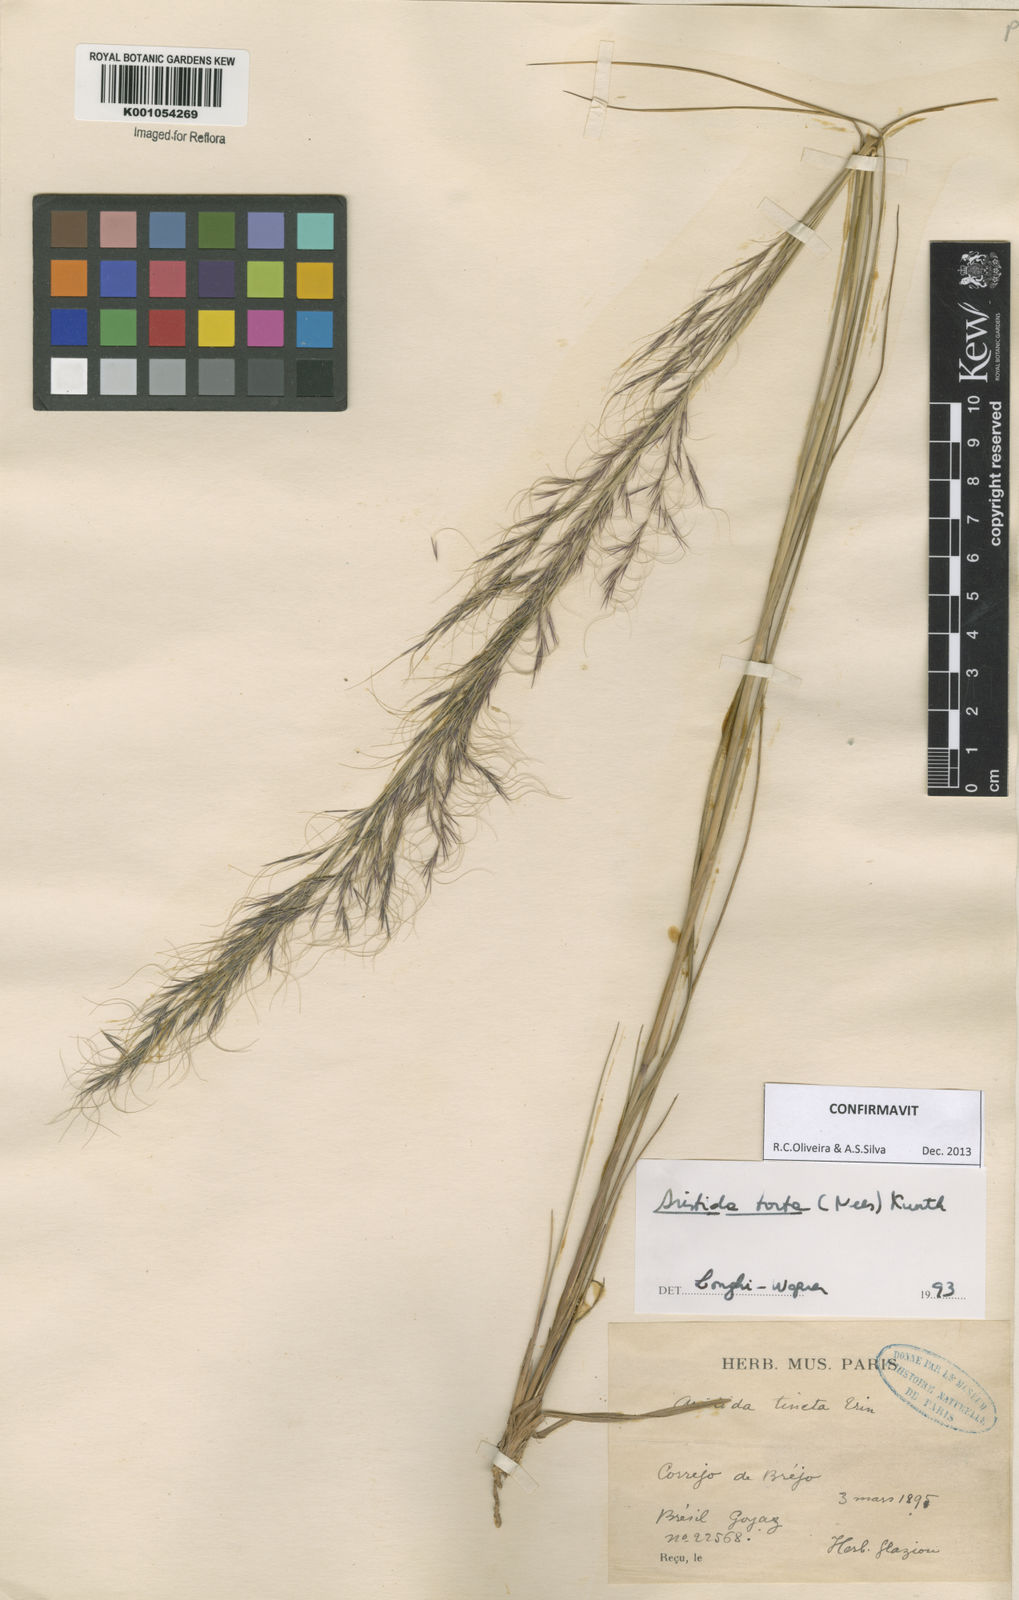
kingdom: Plantae
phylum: Tracheophyta
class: Liliopsida
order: Poales
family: Poaceae
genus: Aristida
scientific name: Aristida torta
